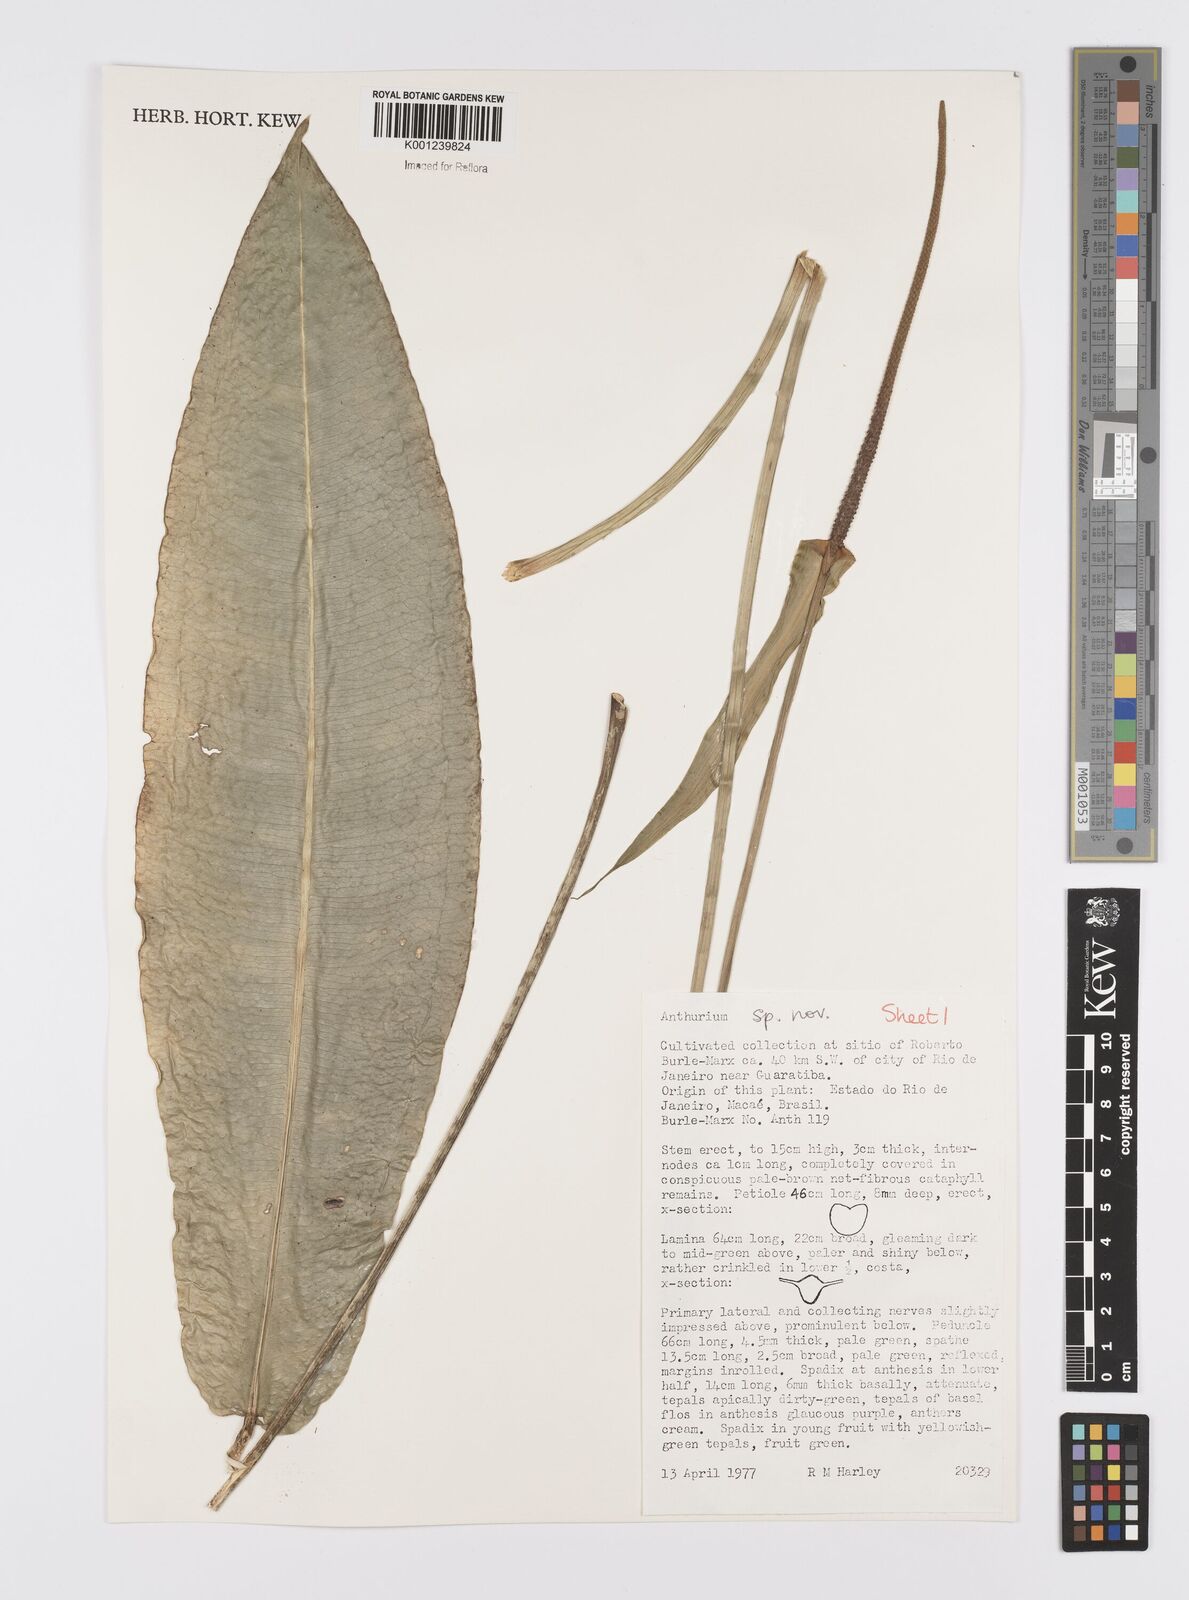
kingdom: Plantae
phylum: Tracheophyta
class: Liliopsida
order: Alismatales
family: Araceae
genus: Anthurium
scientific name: Anthurium
